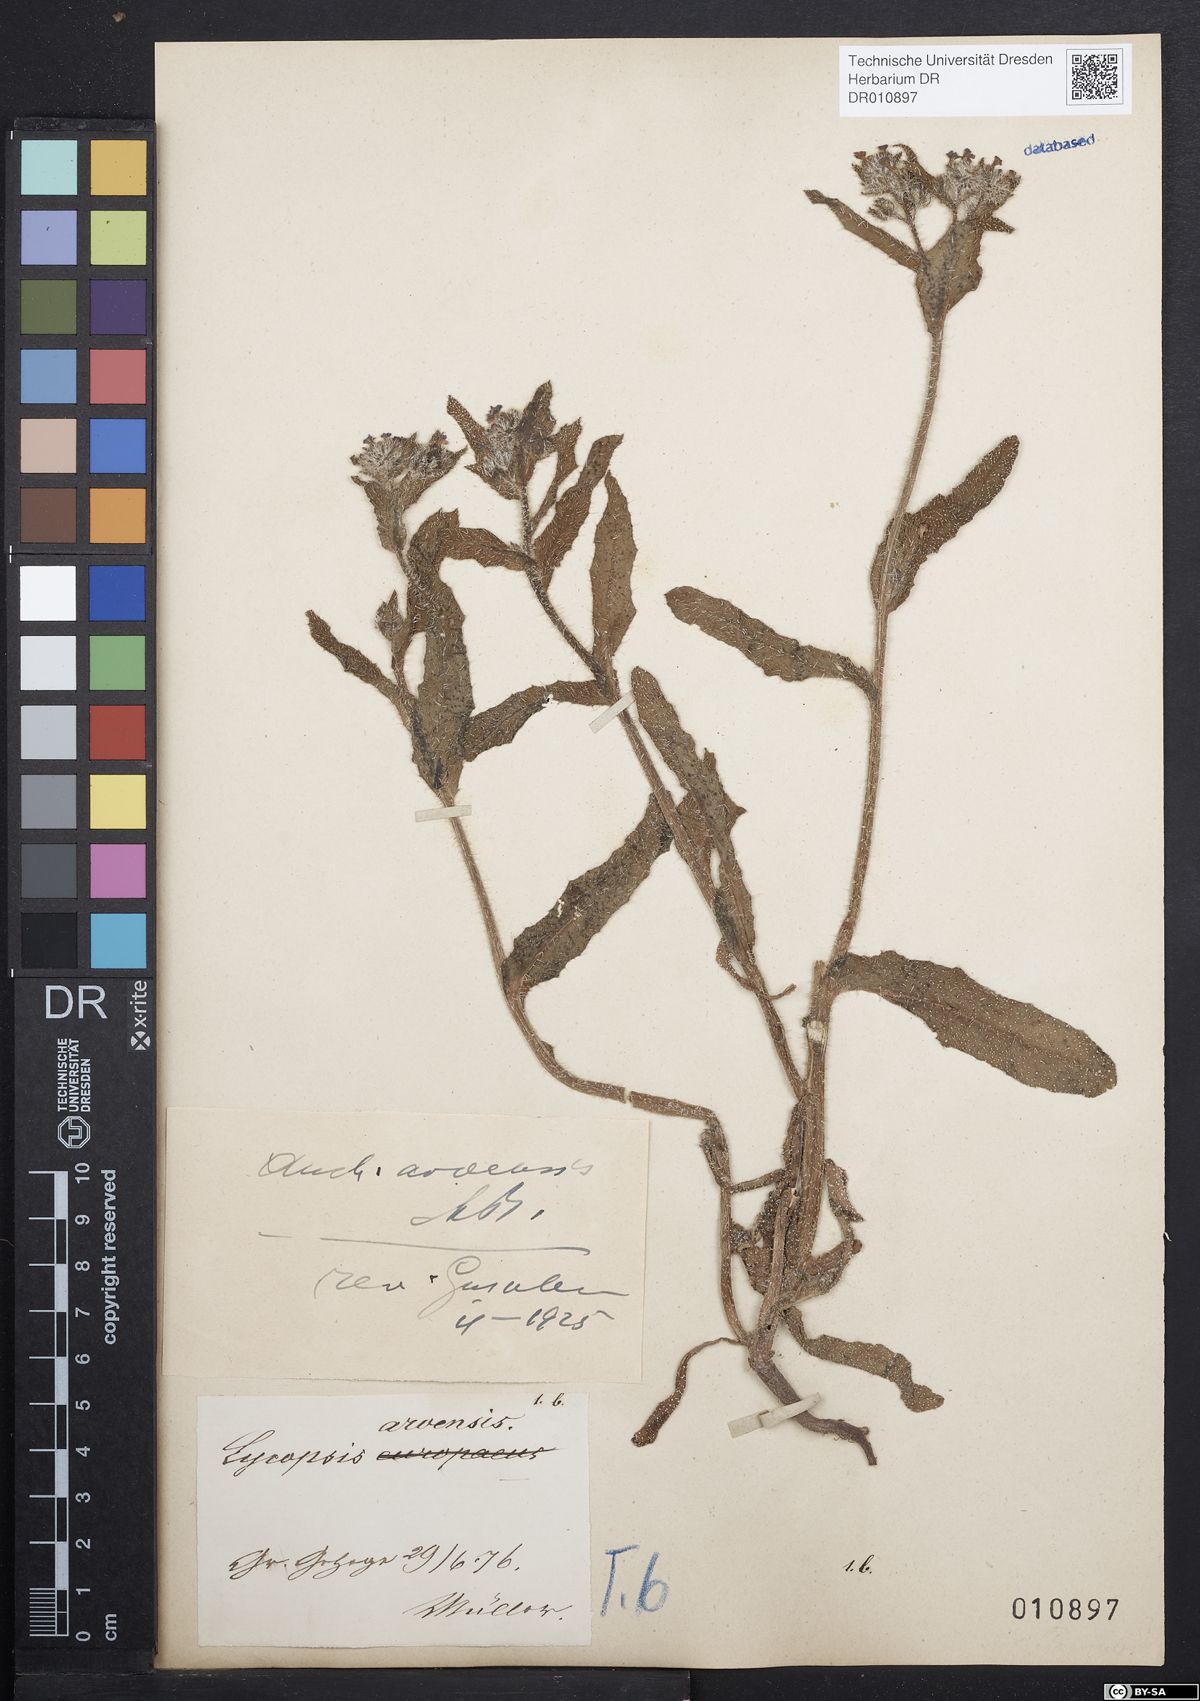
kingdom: Plantae
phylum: Tracheophyta
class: Magnoliopsida
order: Boraginales
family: Boraginaceae
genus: Lycopsis
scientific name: Lycopsis arvensis
